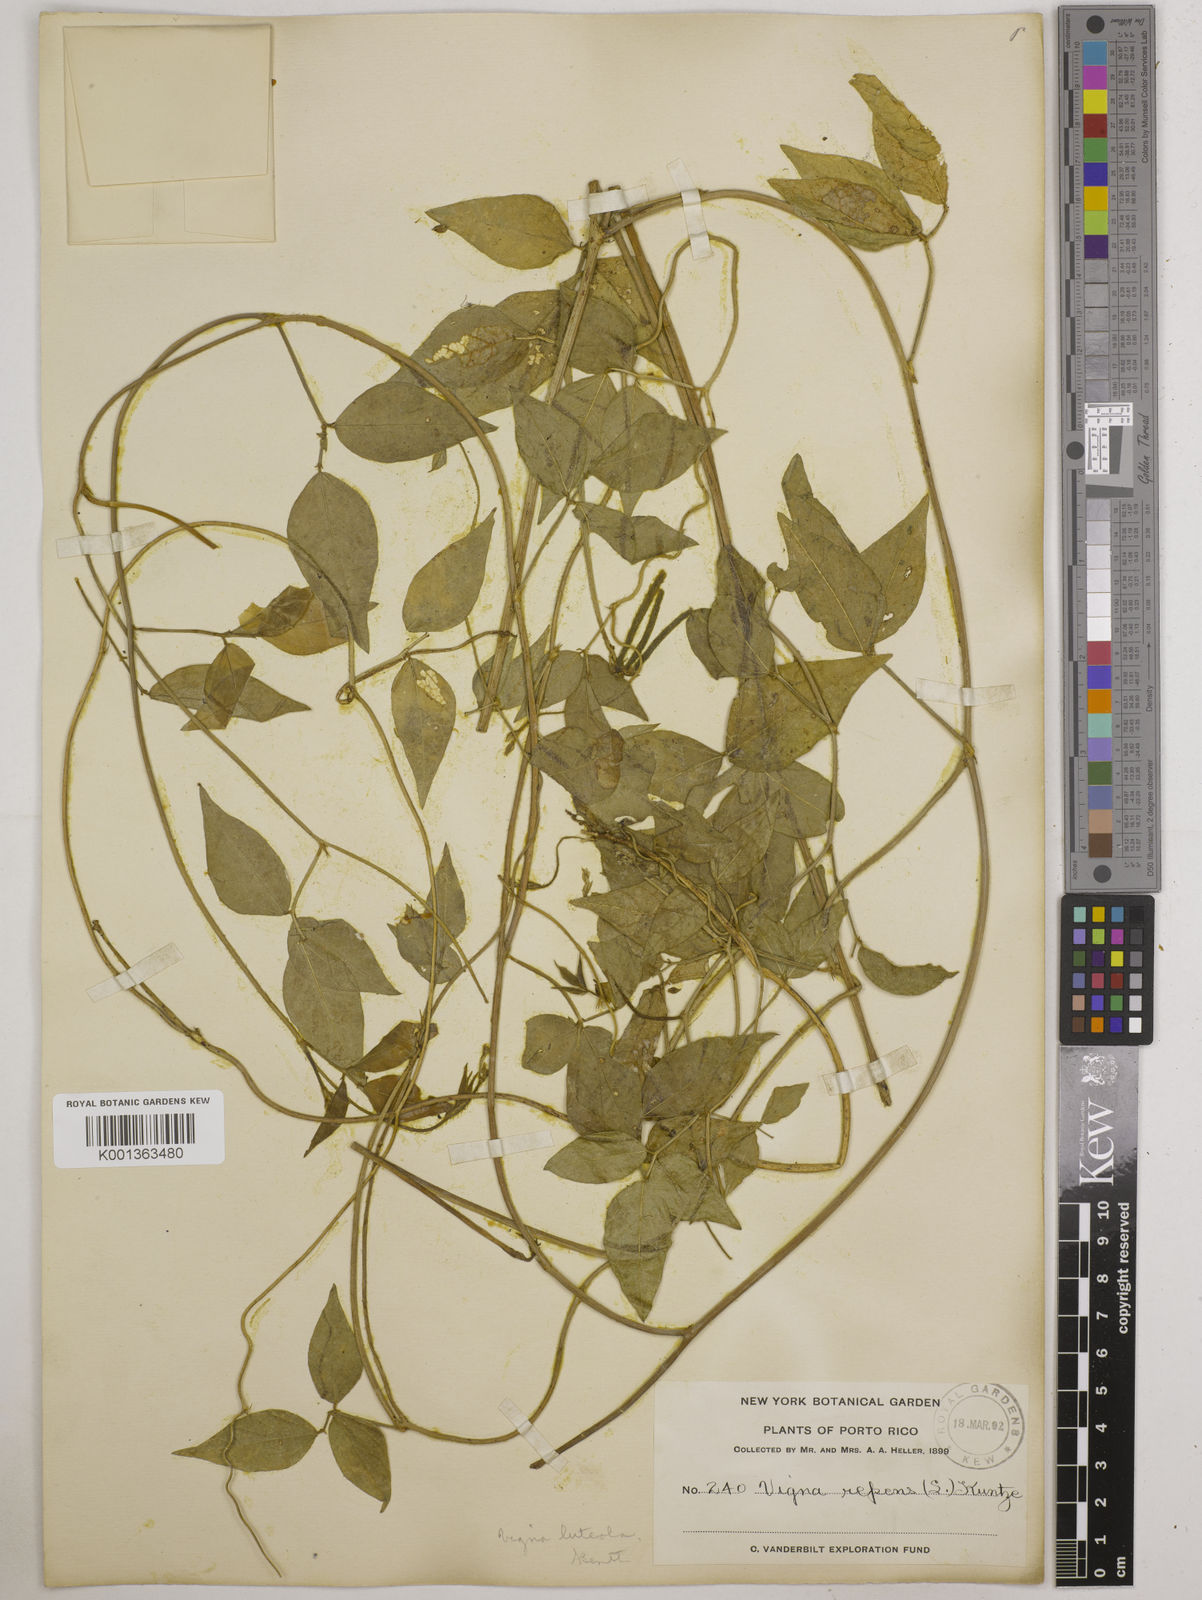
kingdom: Plantae
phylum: Tracheophyta
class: Magnoliopsida
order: Fabales
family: Fabaceae
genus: Vigna
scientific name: Vigna luteola
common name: Hairypod cowpea
